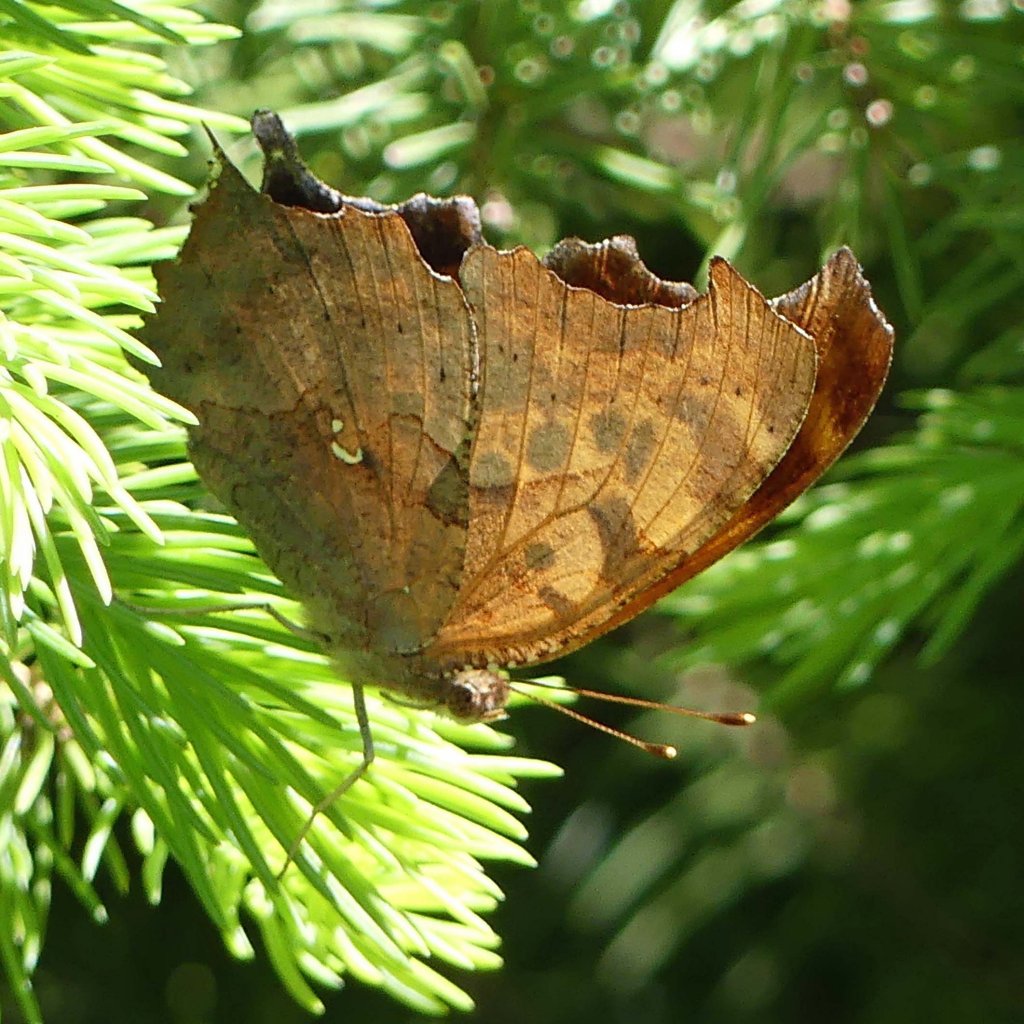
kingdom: Animalia
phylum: Arthropoda
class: Insecta
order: Lepidoptera
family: Nymphalidae
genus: Polygonia
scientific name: Polygonia interrogationis
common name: Question Mark
